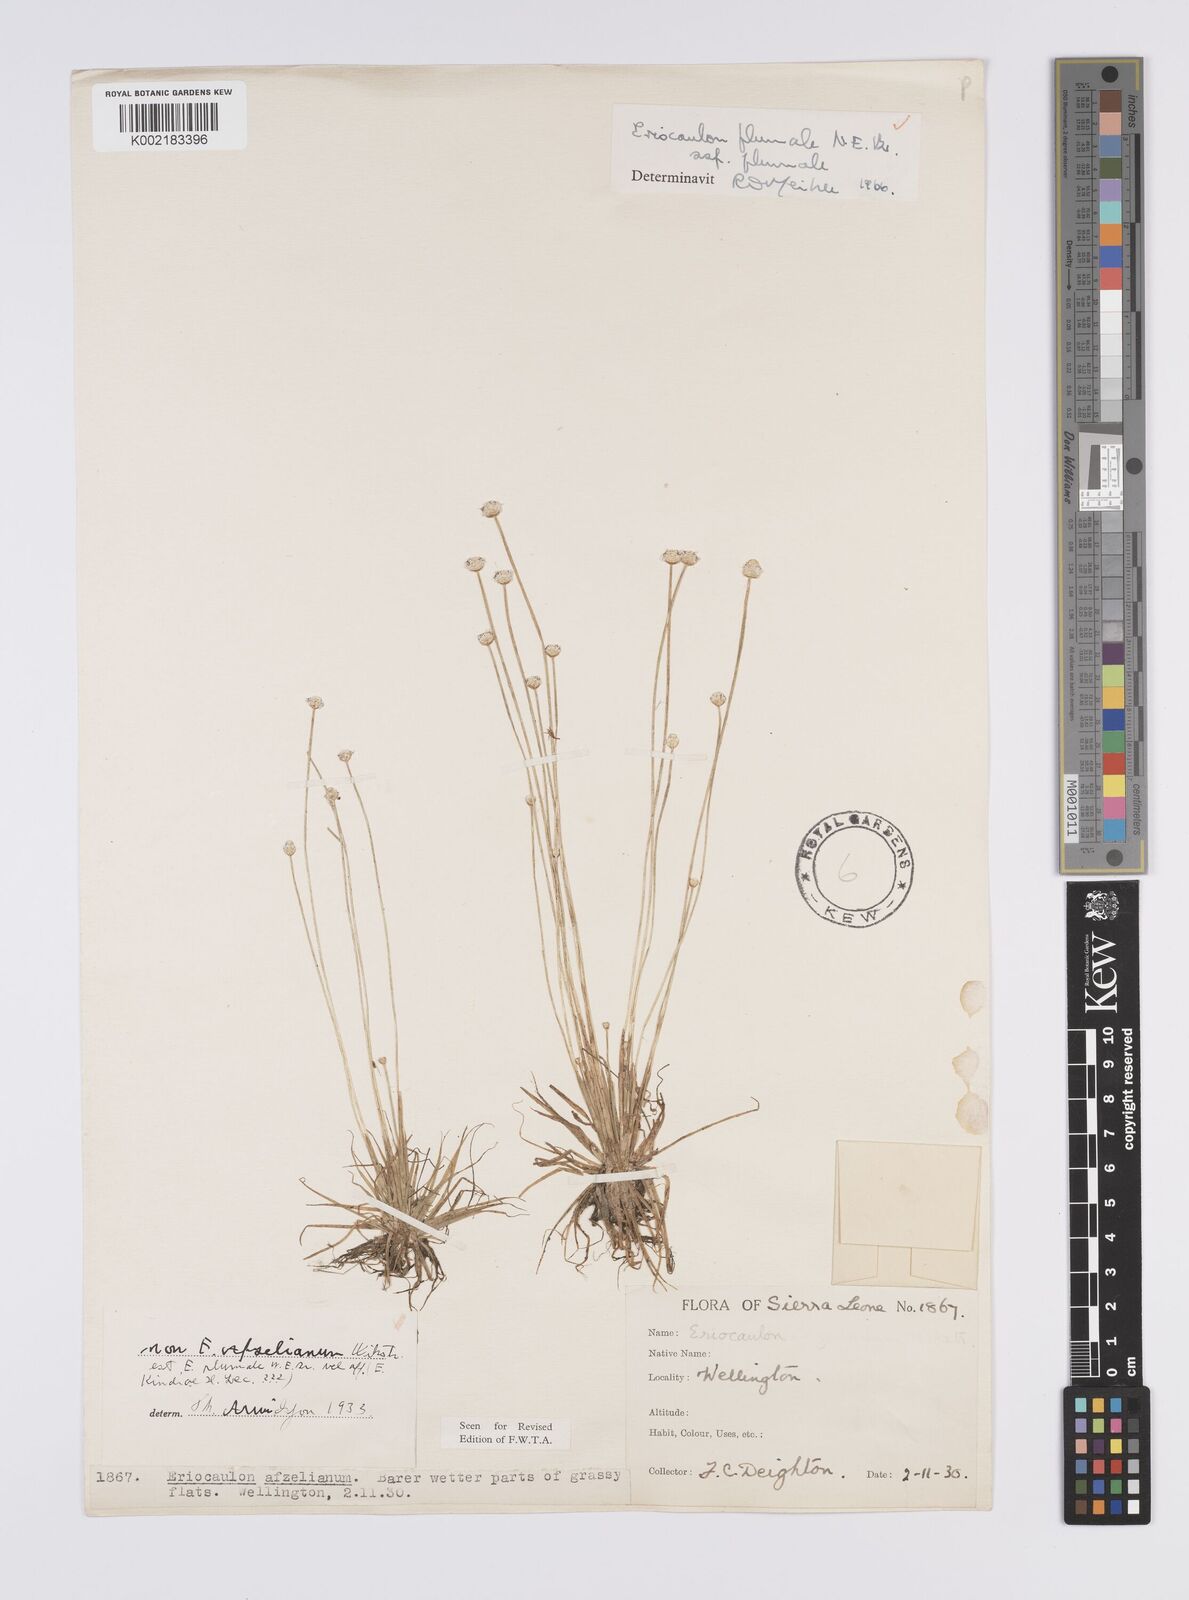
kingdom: Plantae
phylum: Tracheophyta
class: Liliopsida
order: Poales
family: Eriocaulaceae
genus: Eriocaulon
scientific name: Eriocaulon plumale
